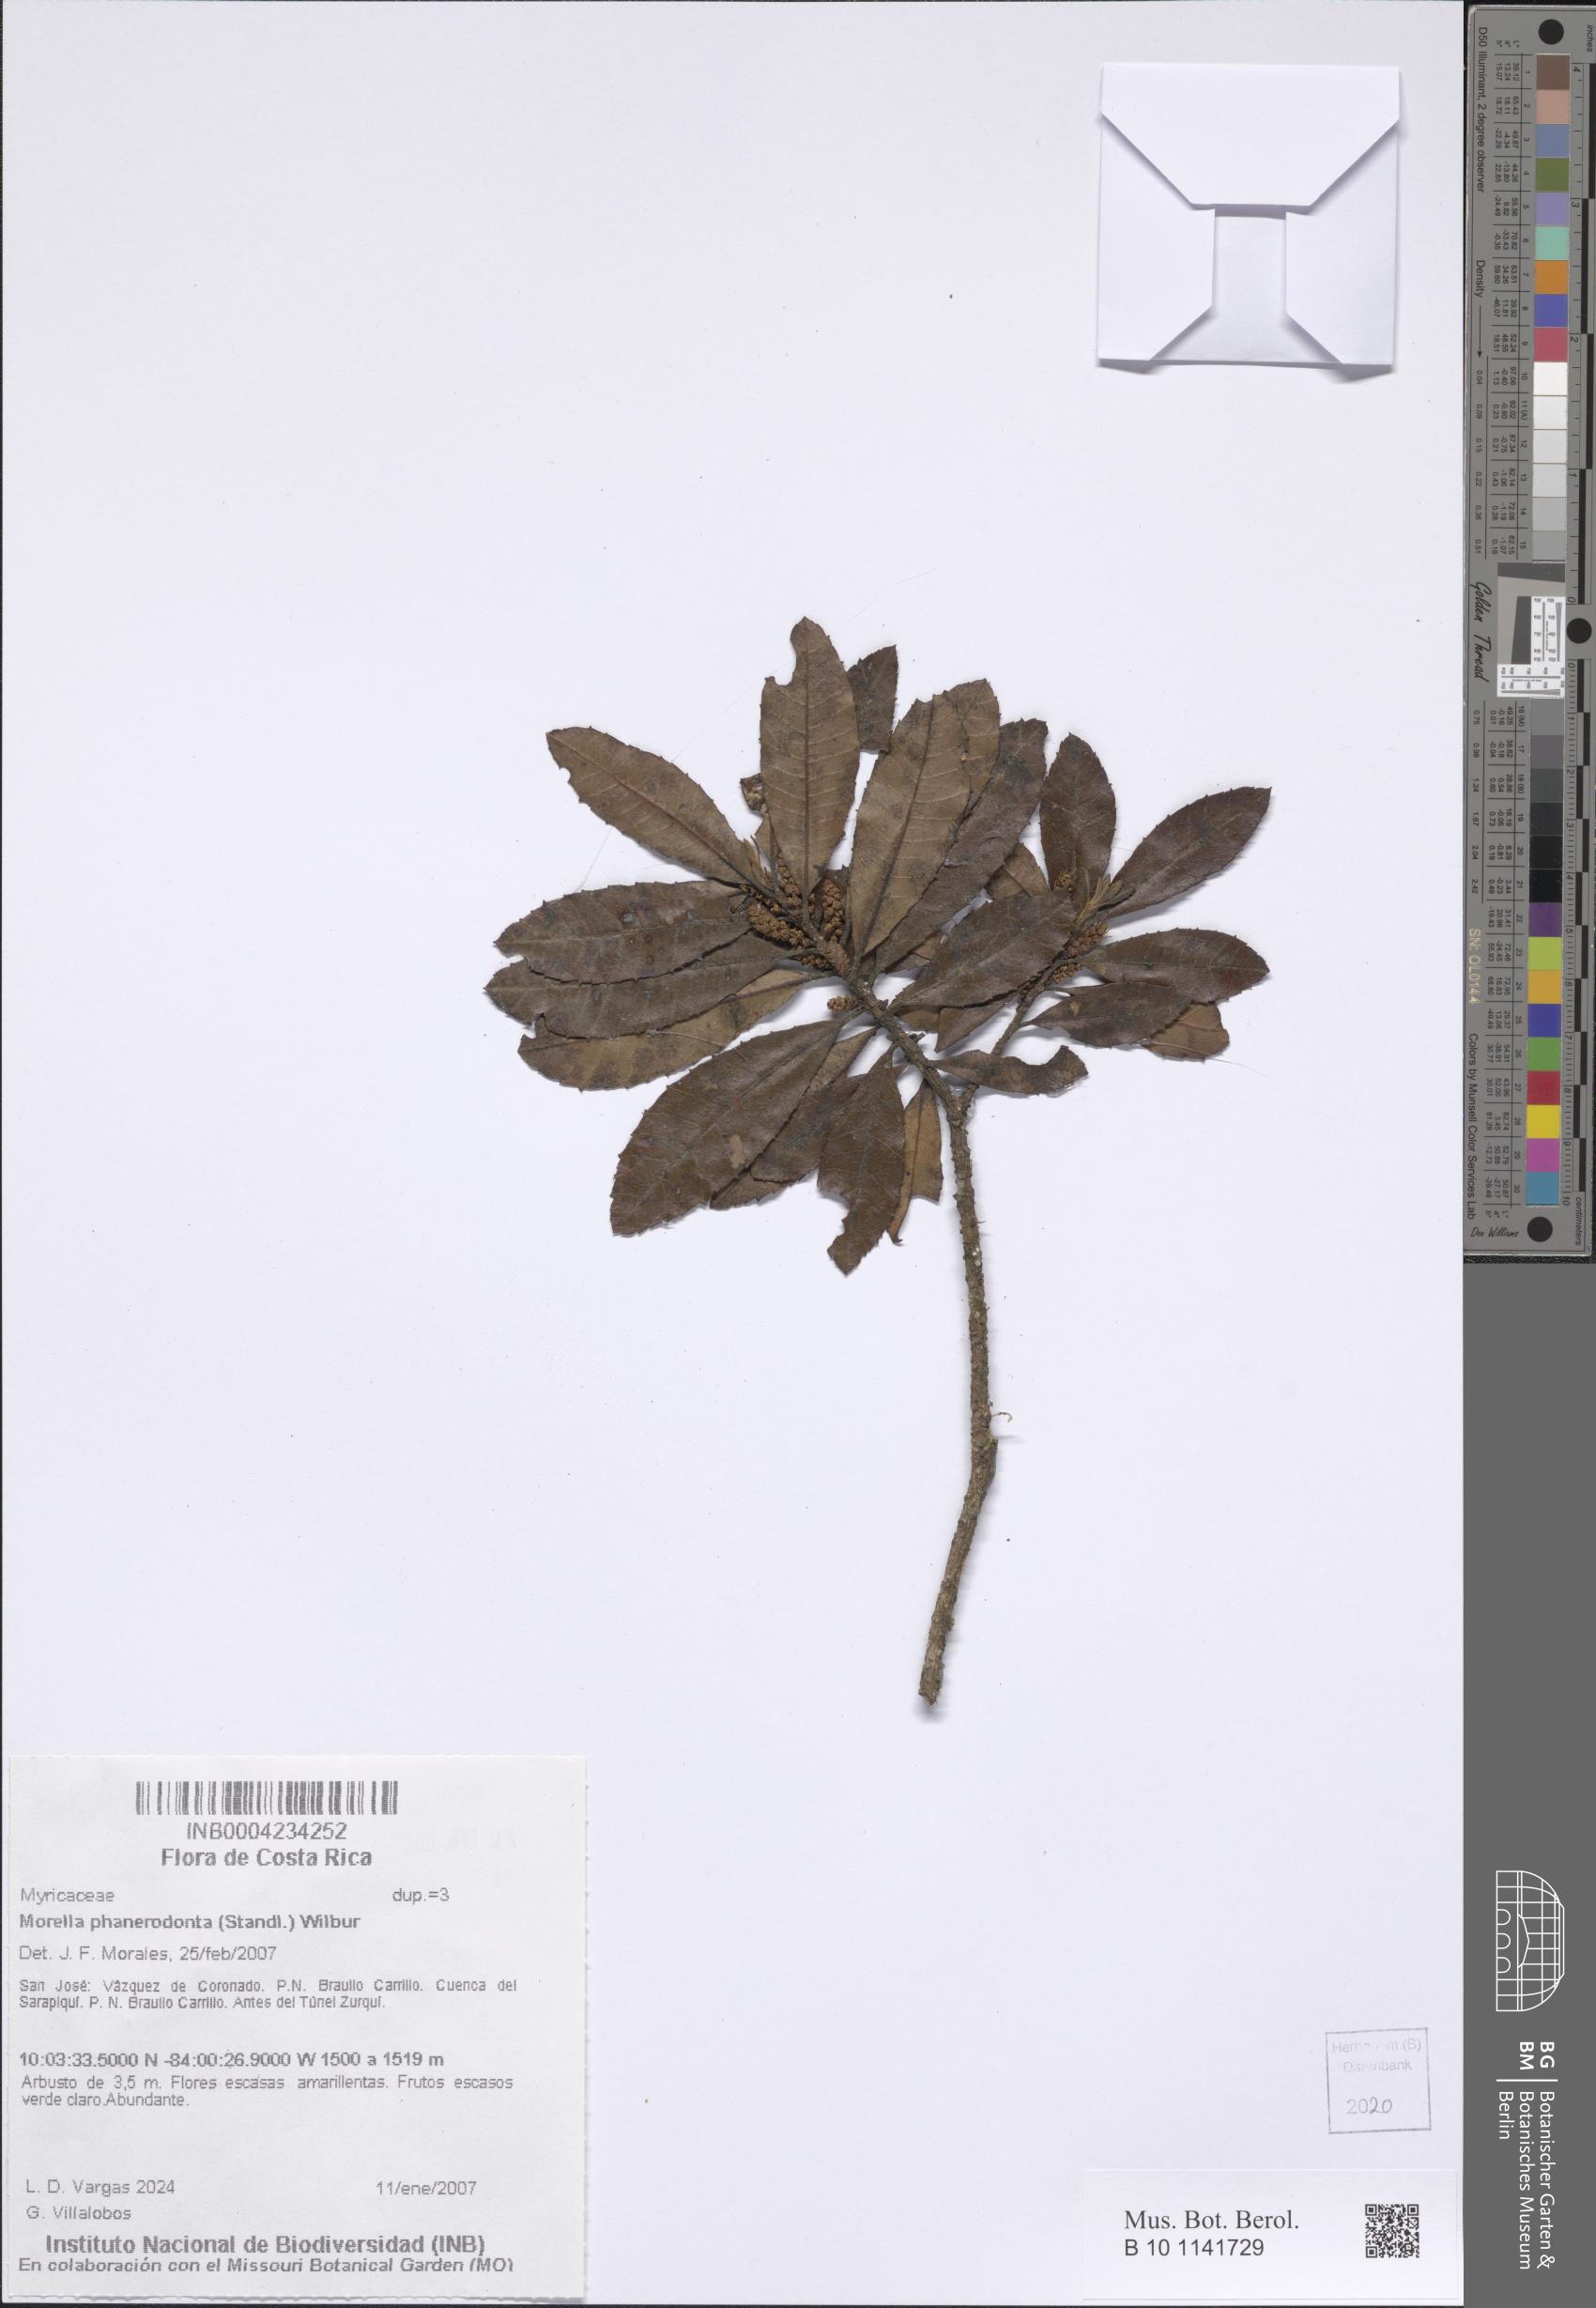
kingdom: Plantae
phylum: Tracheophyta
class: Magnoliopsida
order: Fagales
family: Myricaceae
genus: Morella
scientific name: Morella phanerodonta
